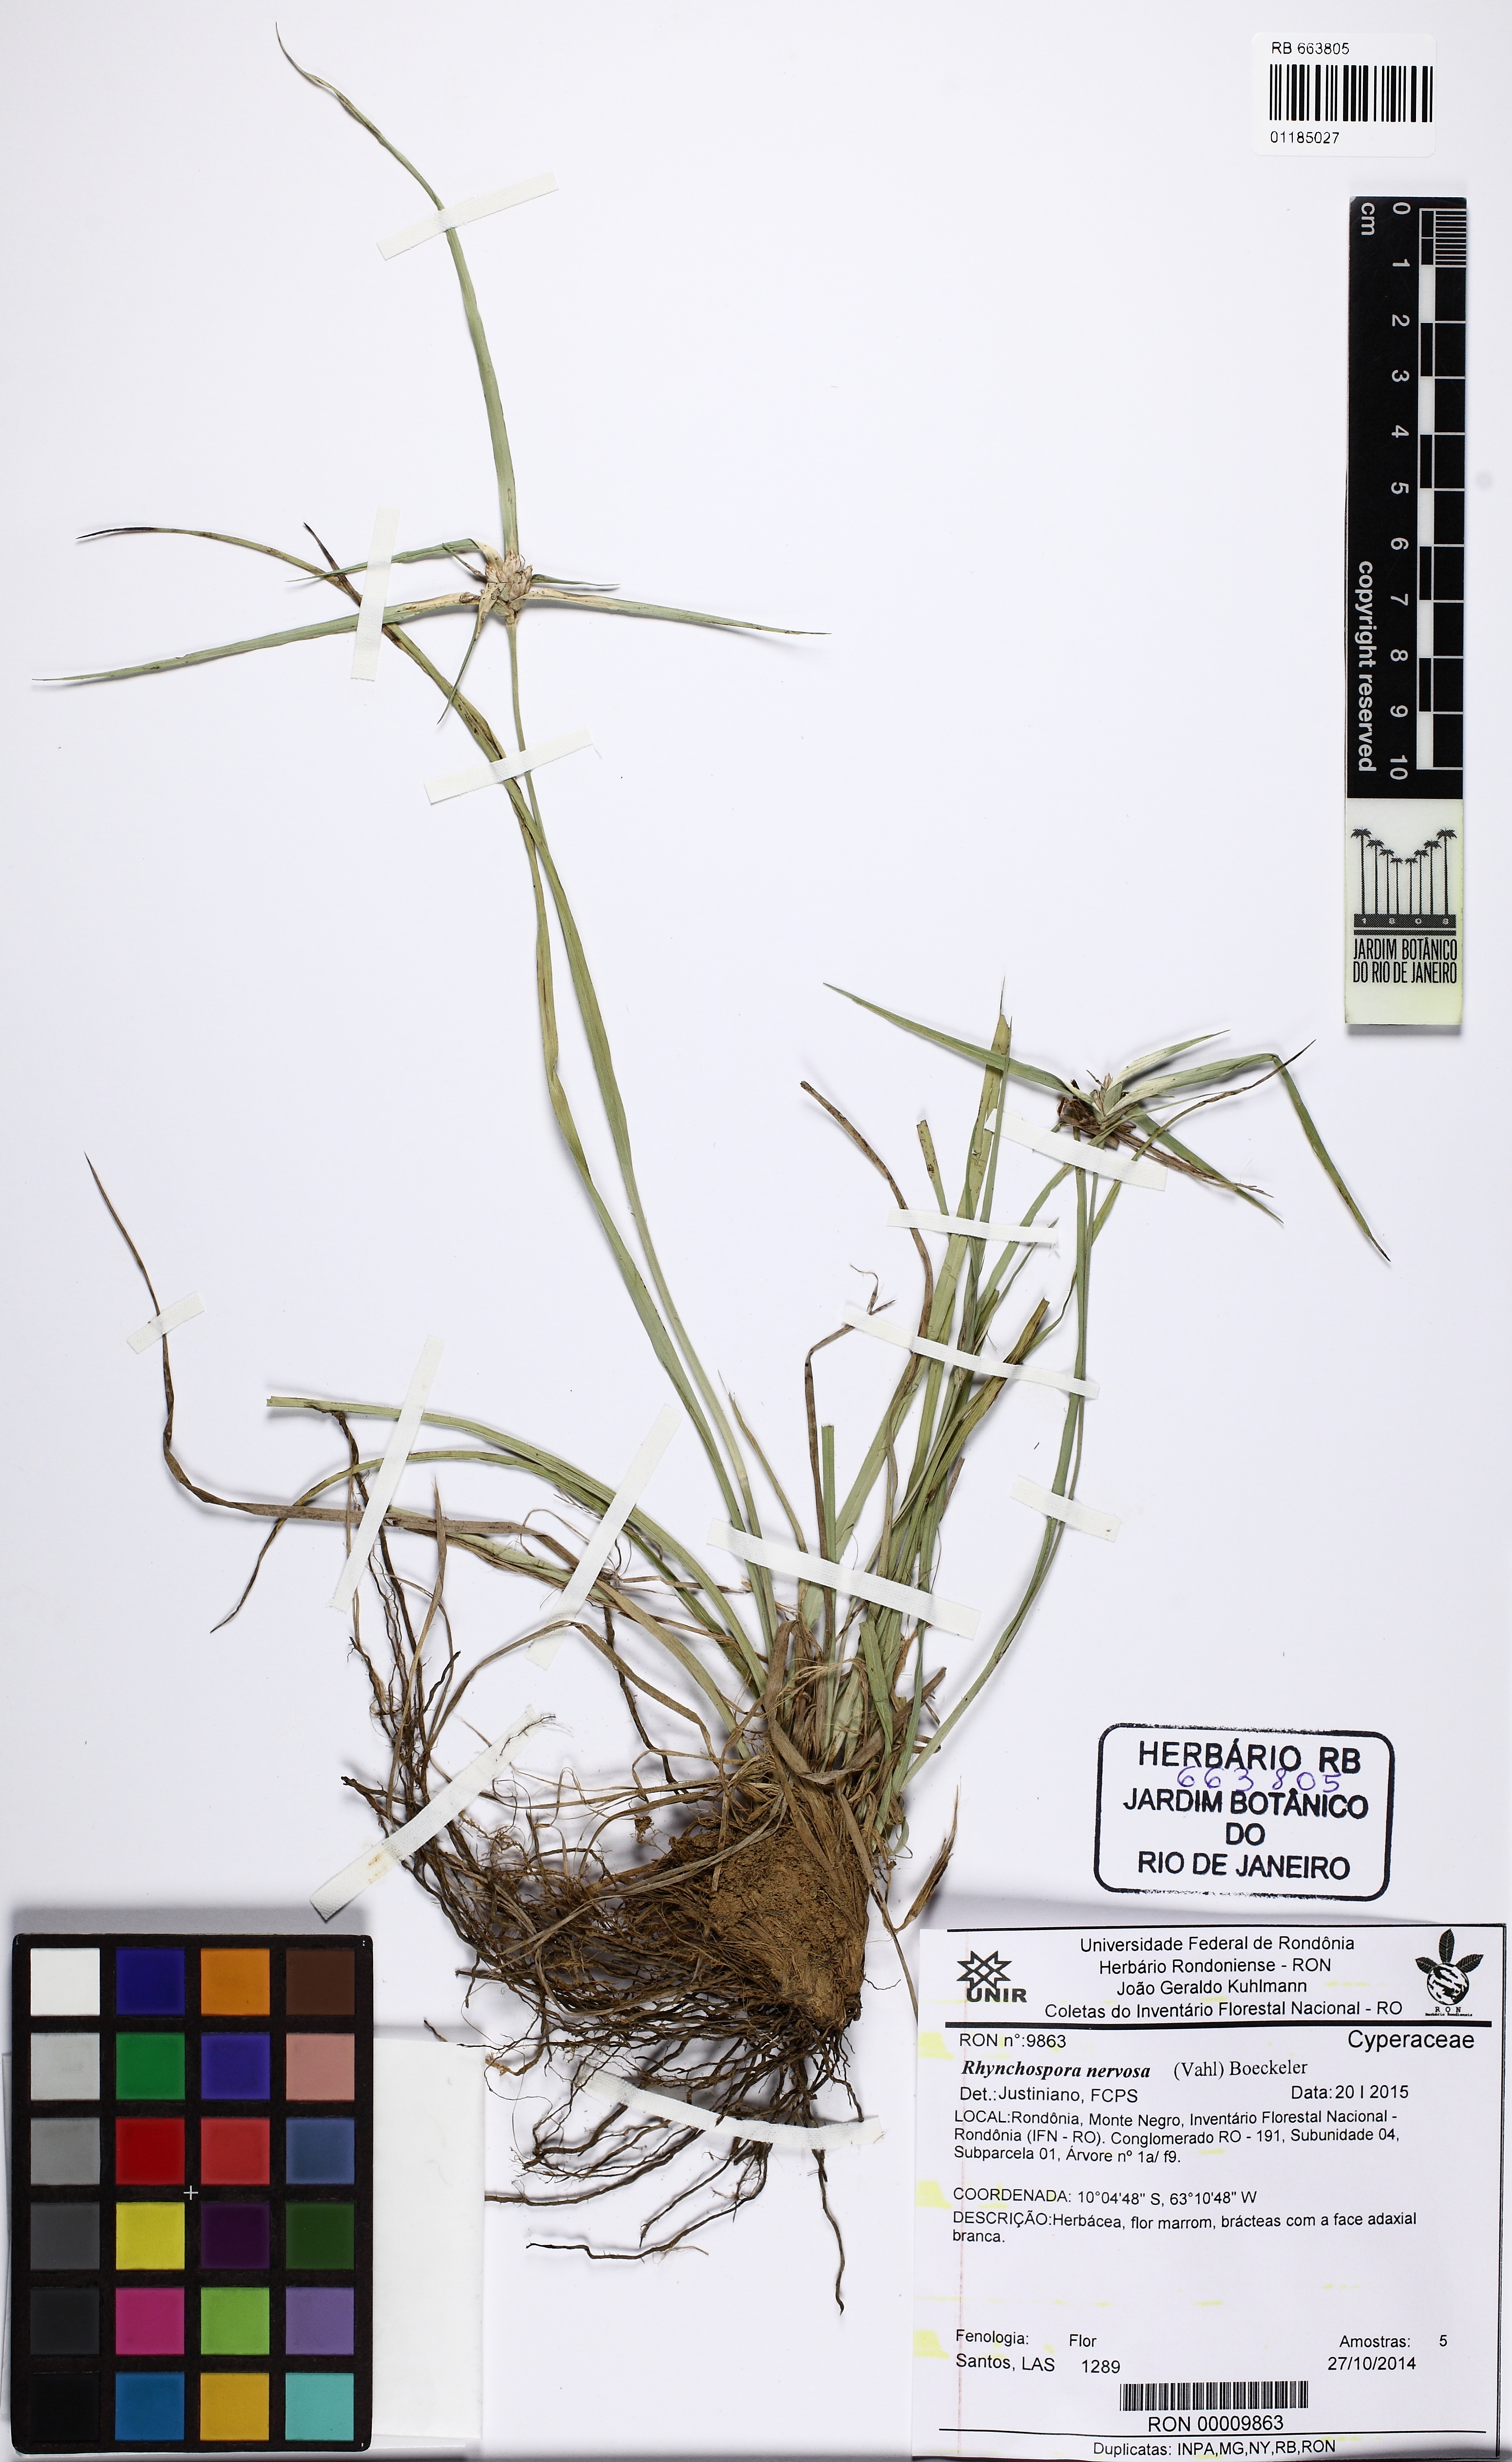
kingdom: Plantae
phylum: Tracheophyta
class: Liliopsida
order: Poales
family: Cyperaceae
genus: Rhynchospora
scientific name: Rhynchospora nervosa
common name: Star sedge
